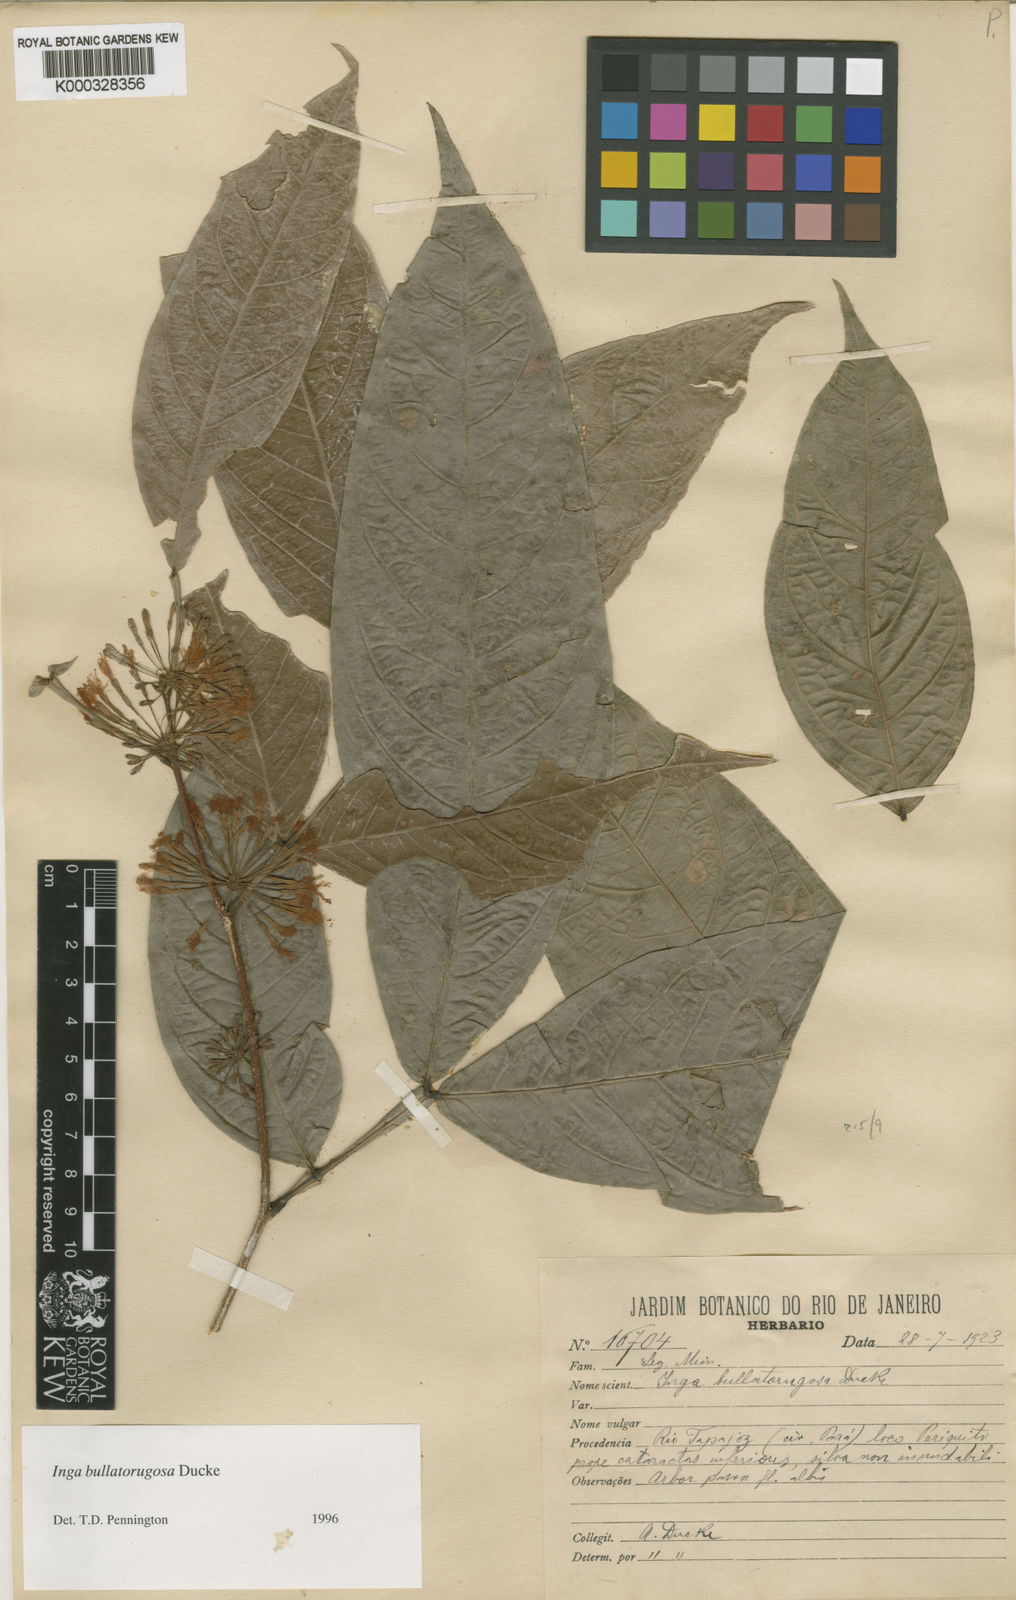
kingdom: Plantae
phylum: Tracheophyta
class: Magnoliopsida
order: Fabales
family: Fabaceae
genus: Inga
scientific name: Inga bullatorugosa
